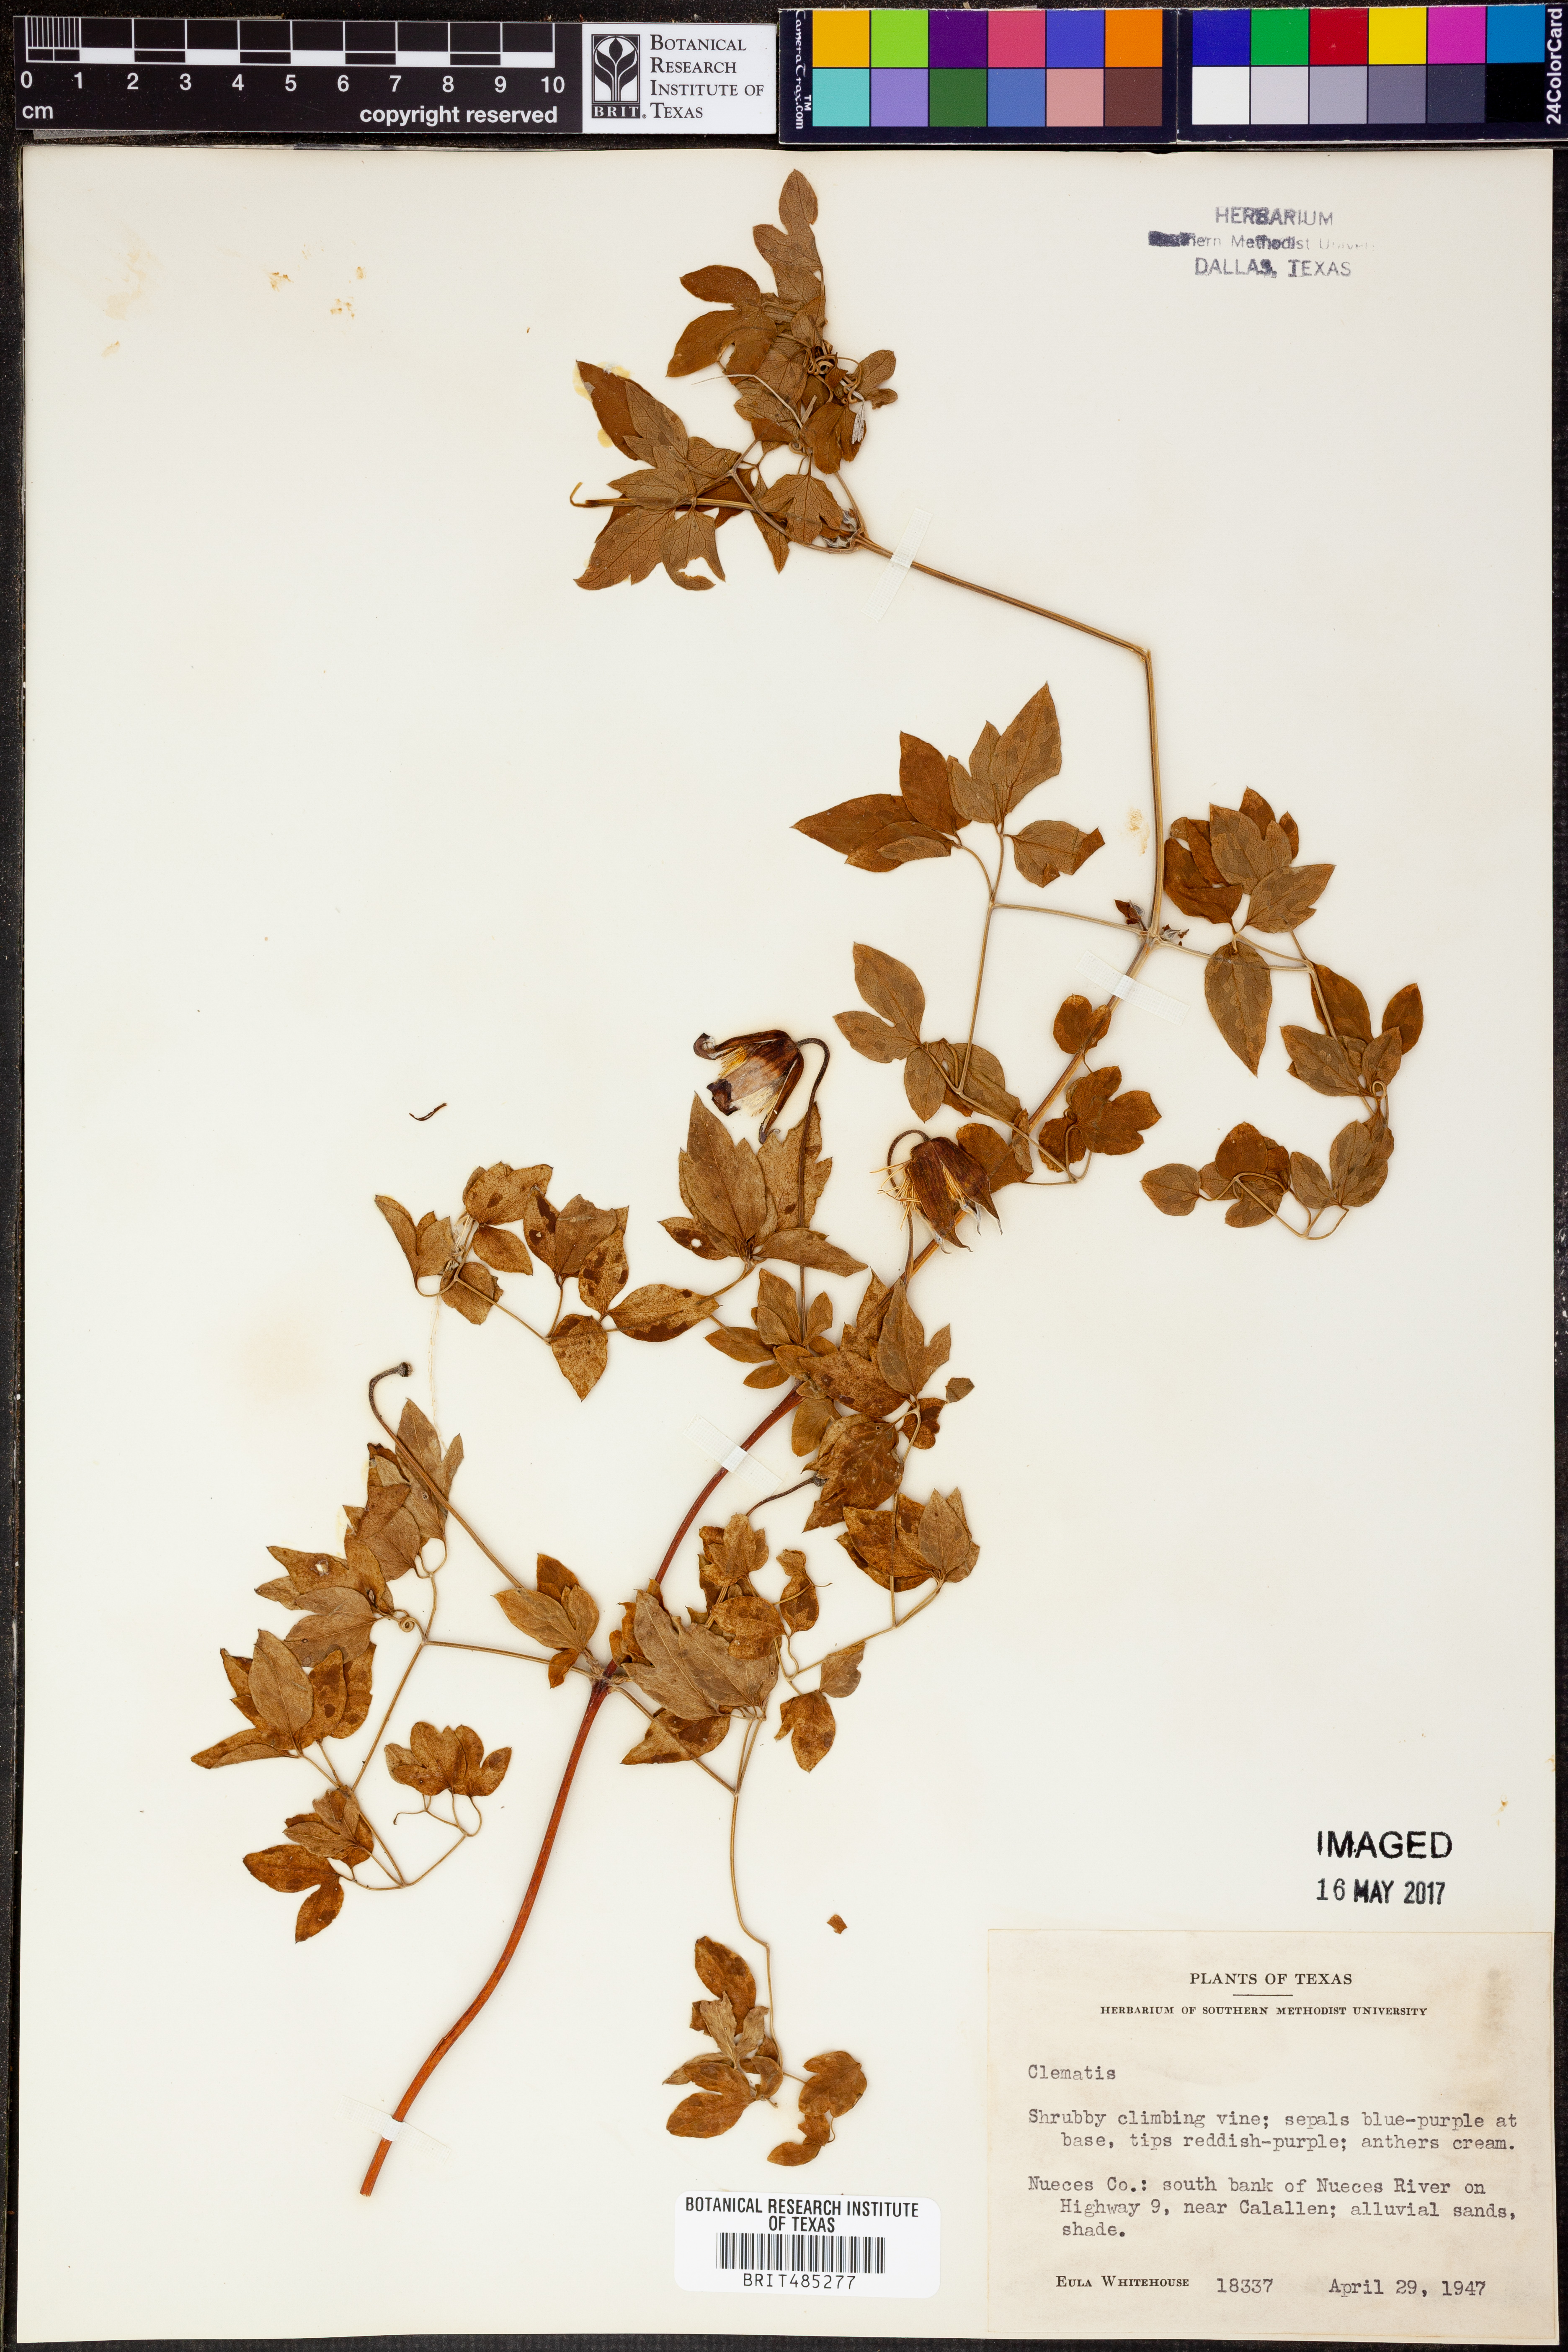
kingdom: Plantae
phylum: Tracheophyta
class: Magnoliopsida
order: Ranunculales
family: Ranunculaceae
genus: Clematis
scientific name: Clematis
